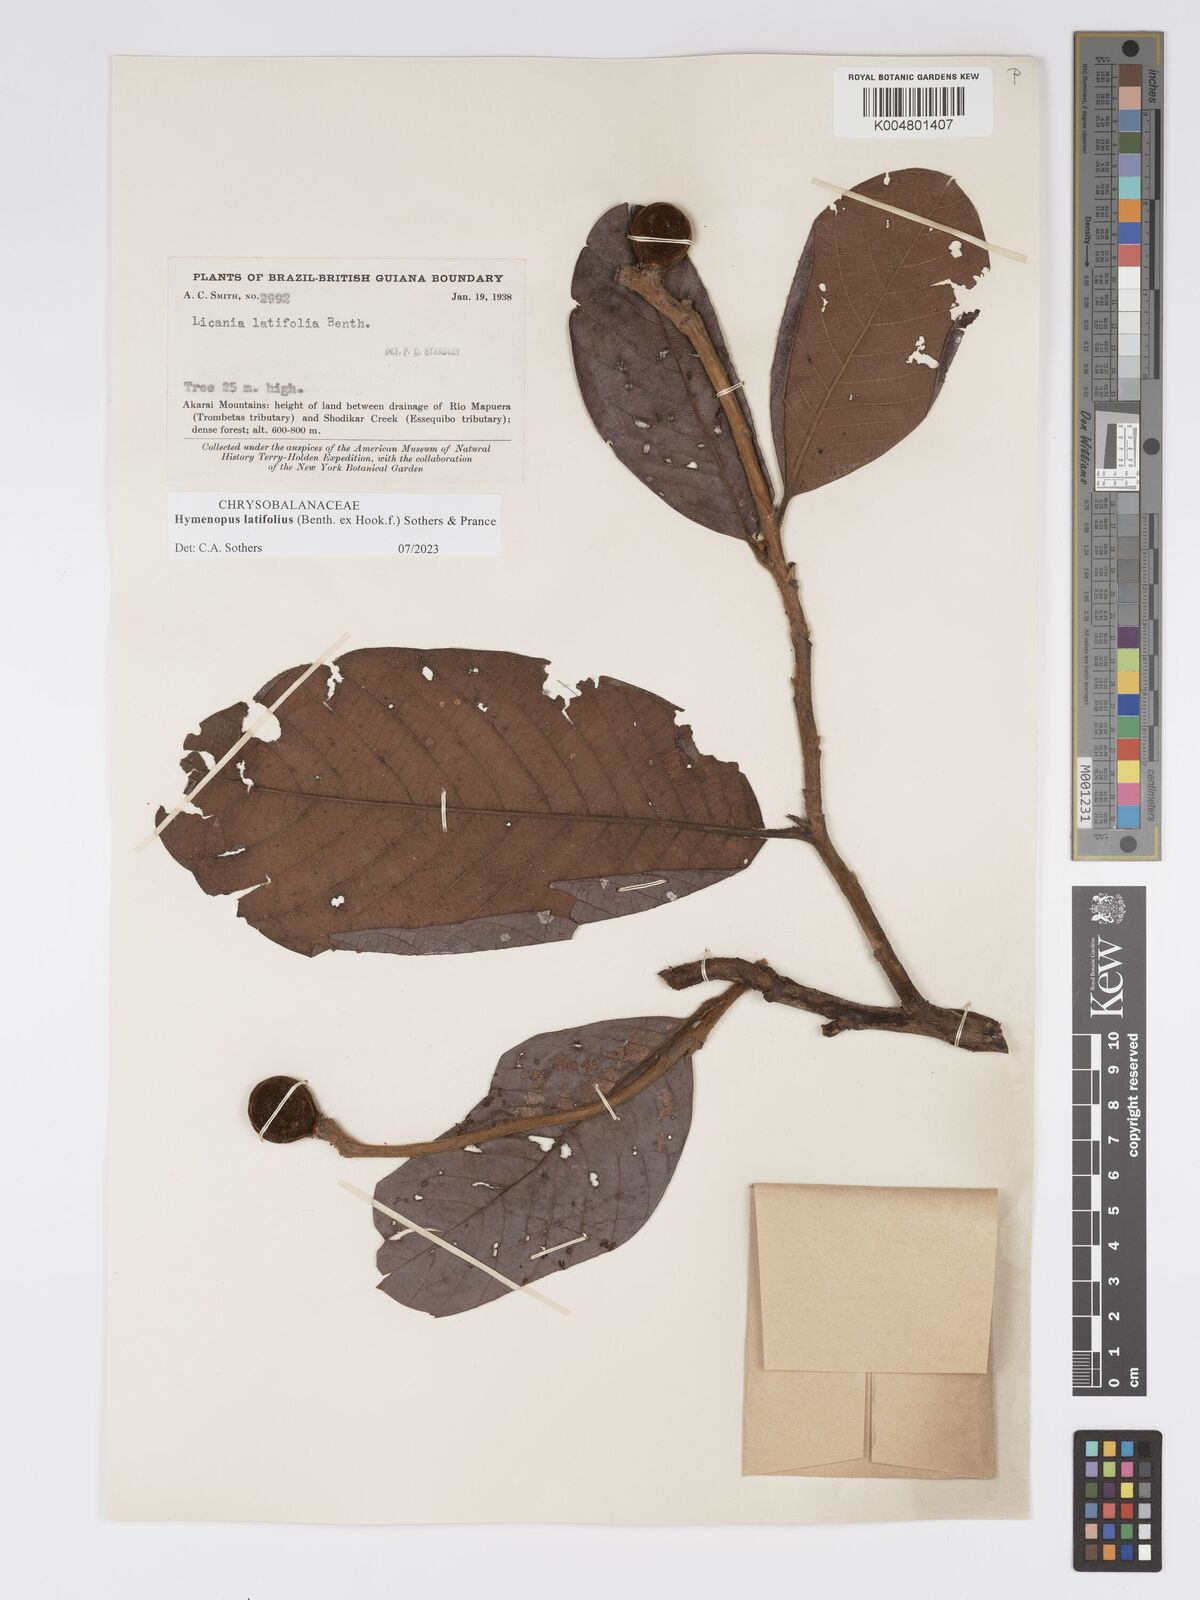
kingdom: Plantae
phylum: Tracheophyta
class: Magnoliopsida
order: Malpighiales
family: Chrysobalanaceae
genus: Hymenopus
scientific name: Hymenopus latifolius
